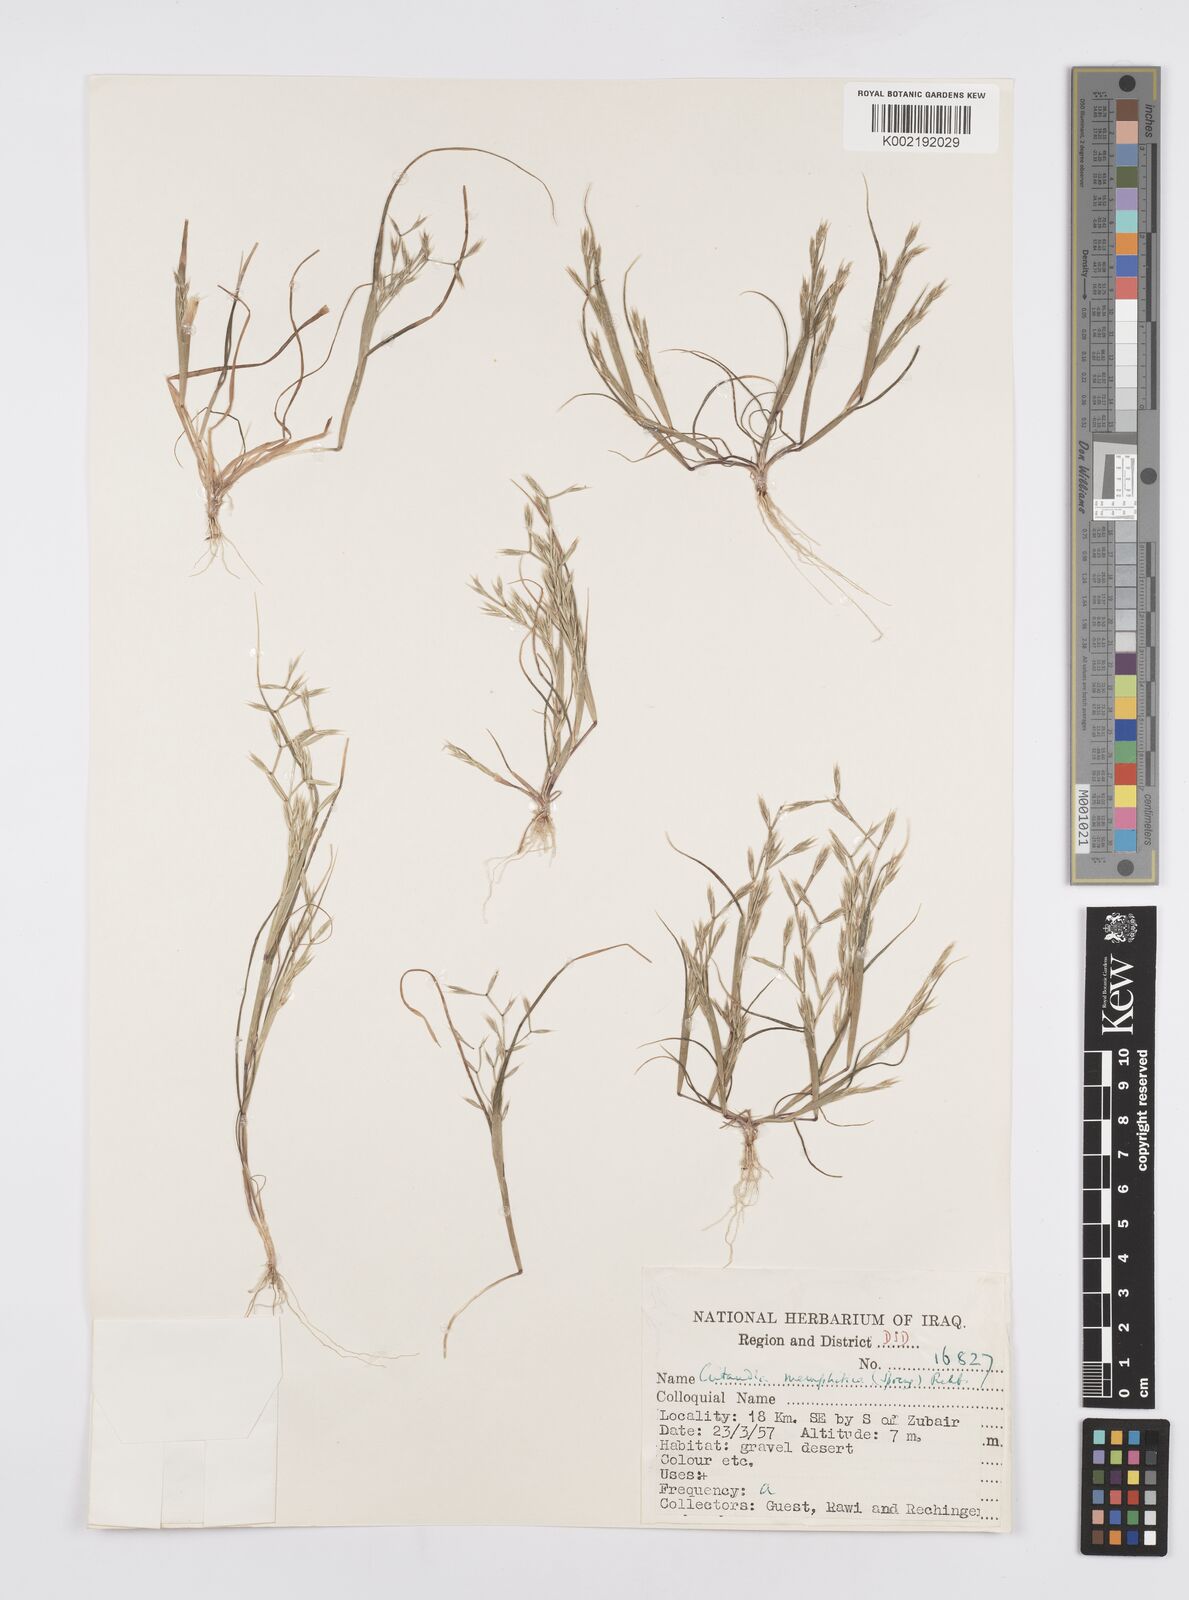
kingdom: Plantae
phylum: Tracheophyta
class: Liliopsida
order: Poales
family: Poaceae
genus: Cutandia
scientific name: Cutandia memphitica
